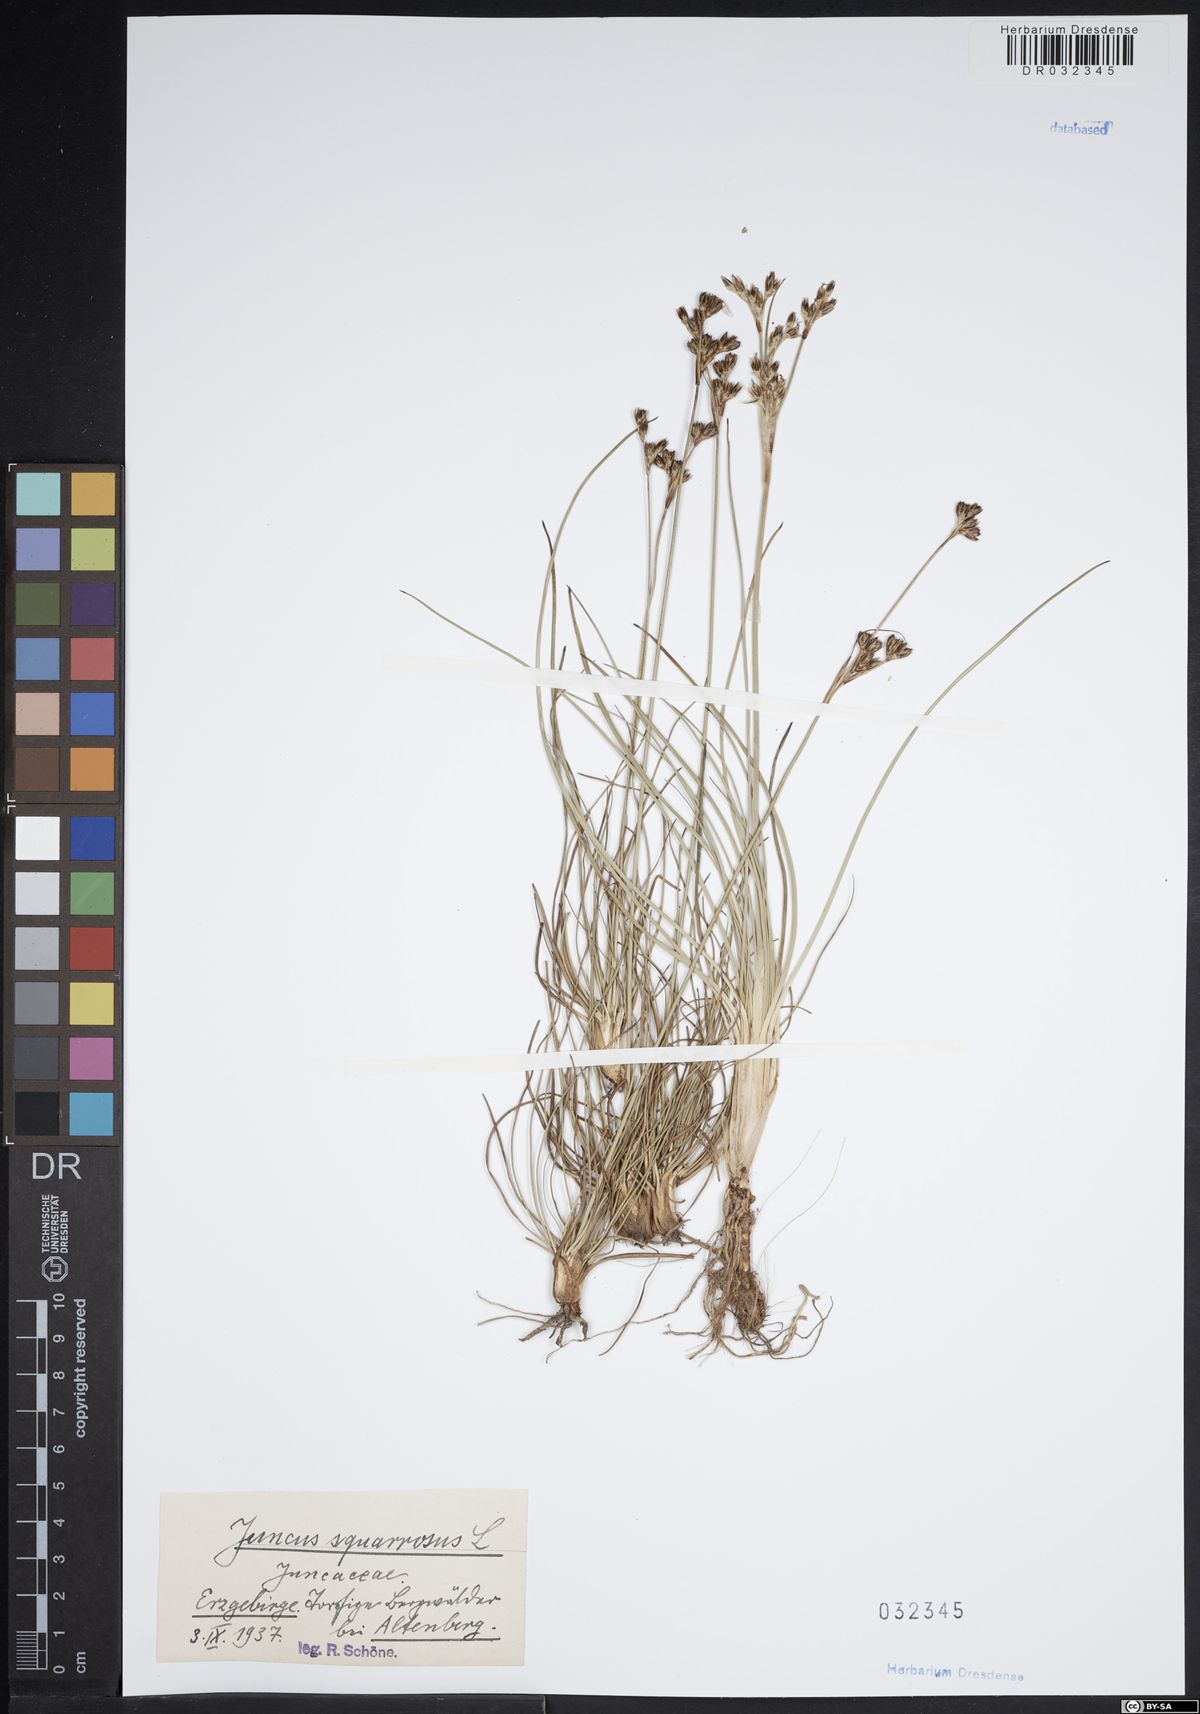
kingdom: Plantae
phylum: Tracheophyta
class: Liliopsida
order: Poales
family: Juncaceae
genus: Juncus
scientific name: Juncus squarrosus
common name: Heath rush
